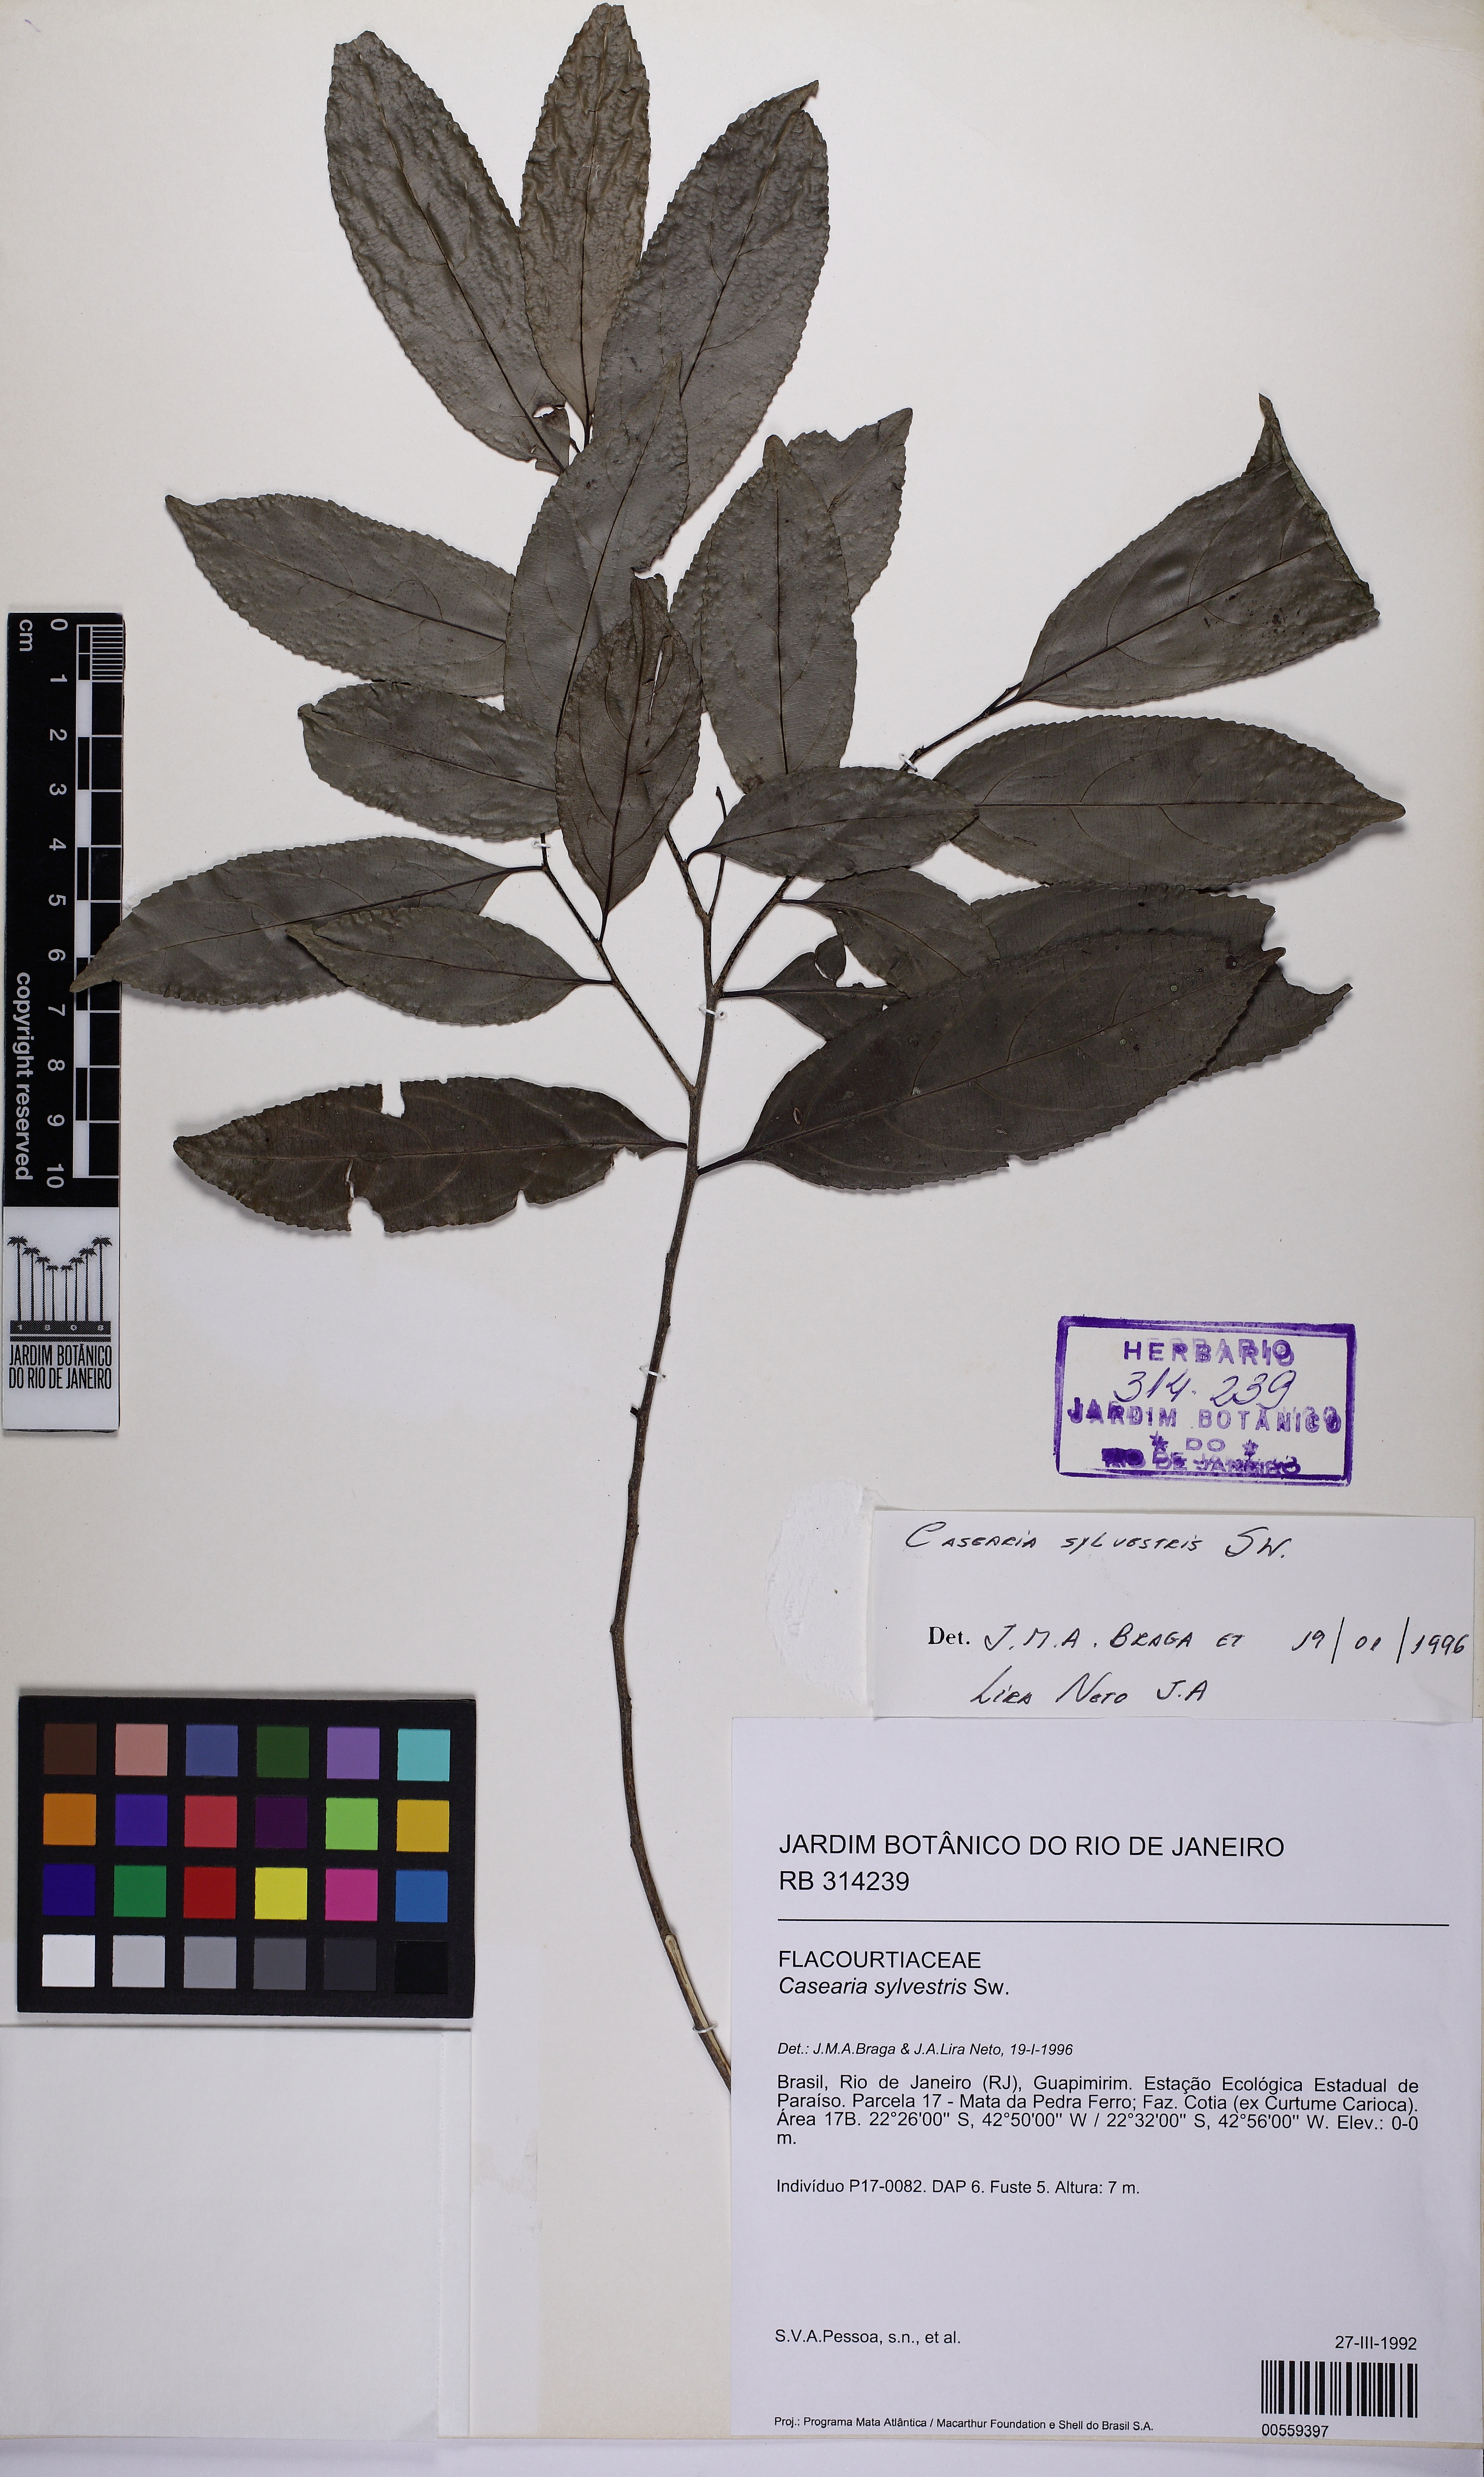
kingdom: Plantae
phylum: Tracheophyta
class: Magnoliopsida
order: Malpighiales
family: Salicaceae
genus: Casearia
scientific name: Casearia arborea
